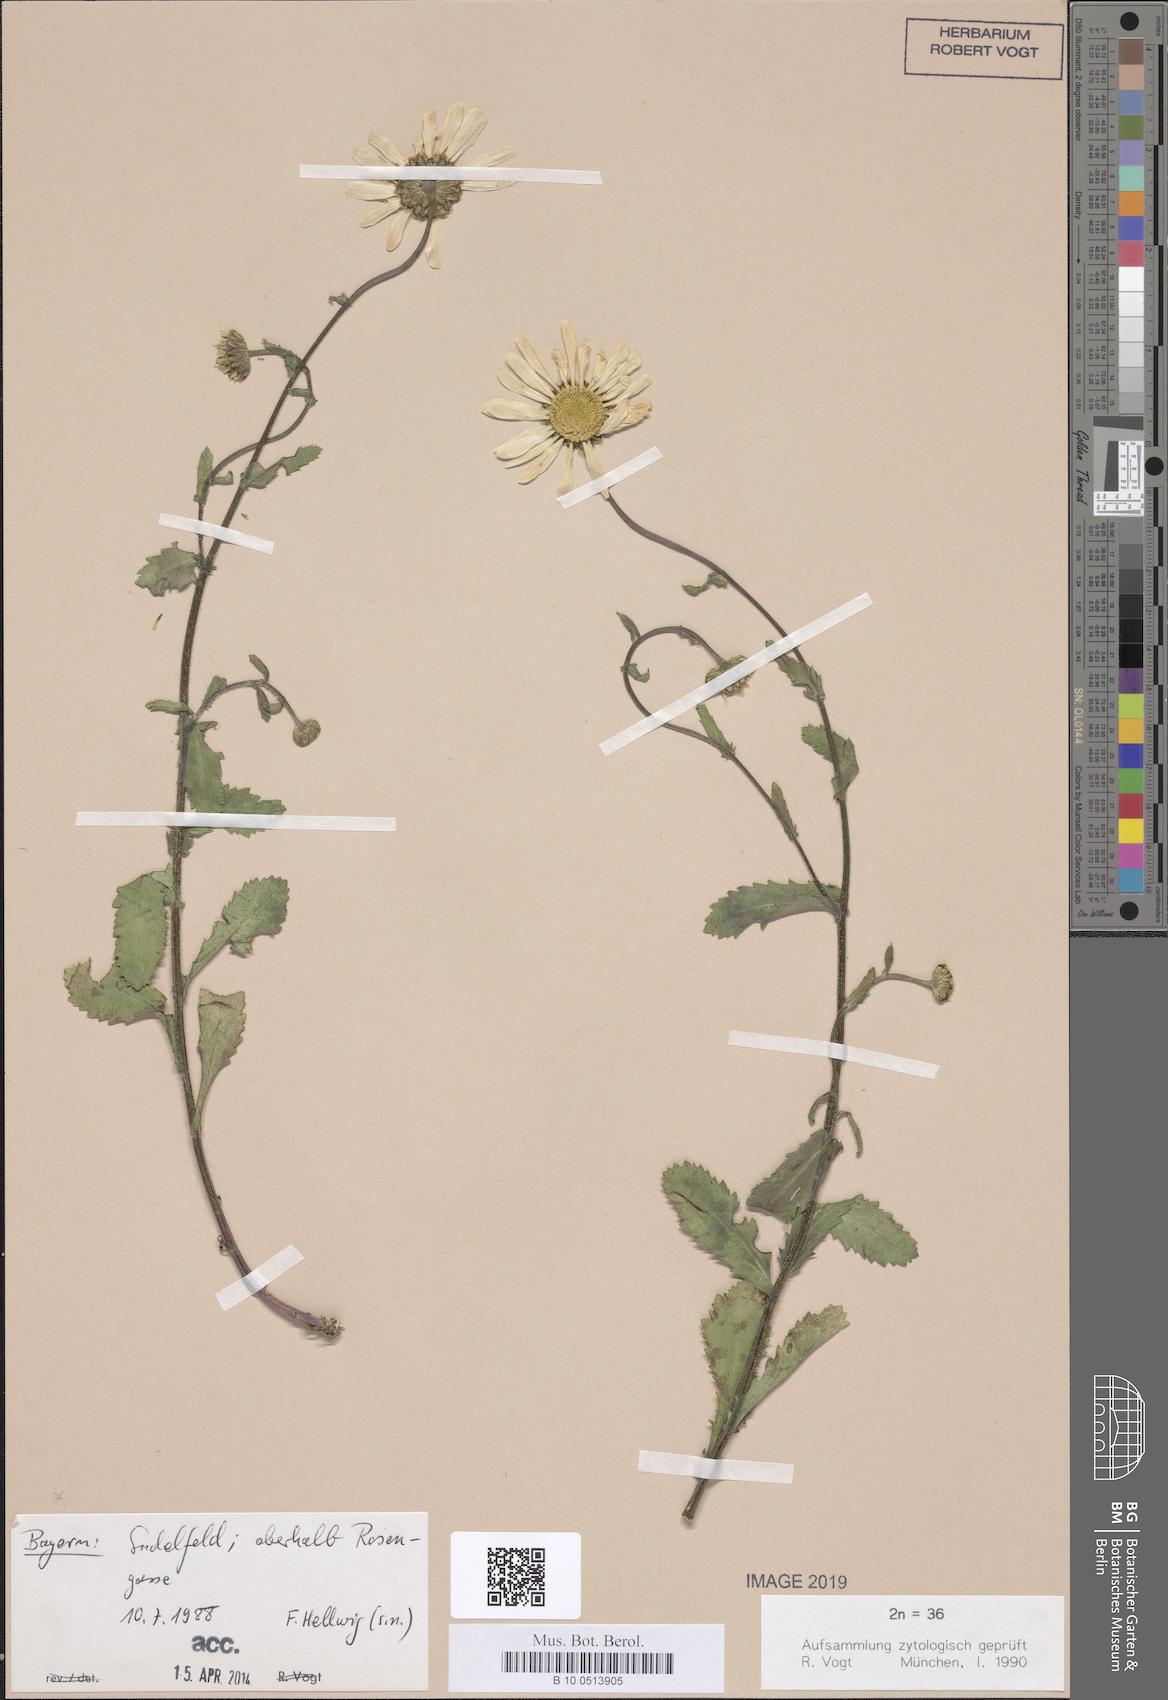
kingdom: Plantae
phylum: Tracheophyta
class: Magnoliopsida
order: Asterales
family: Asteraceae
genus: Leucanthemum
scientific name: Leucanthemum ircutianum
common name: Daisy
